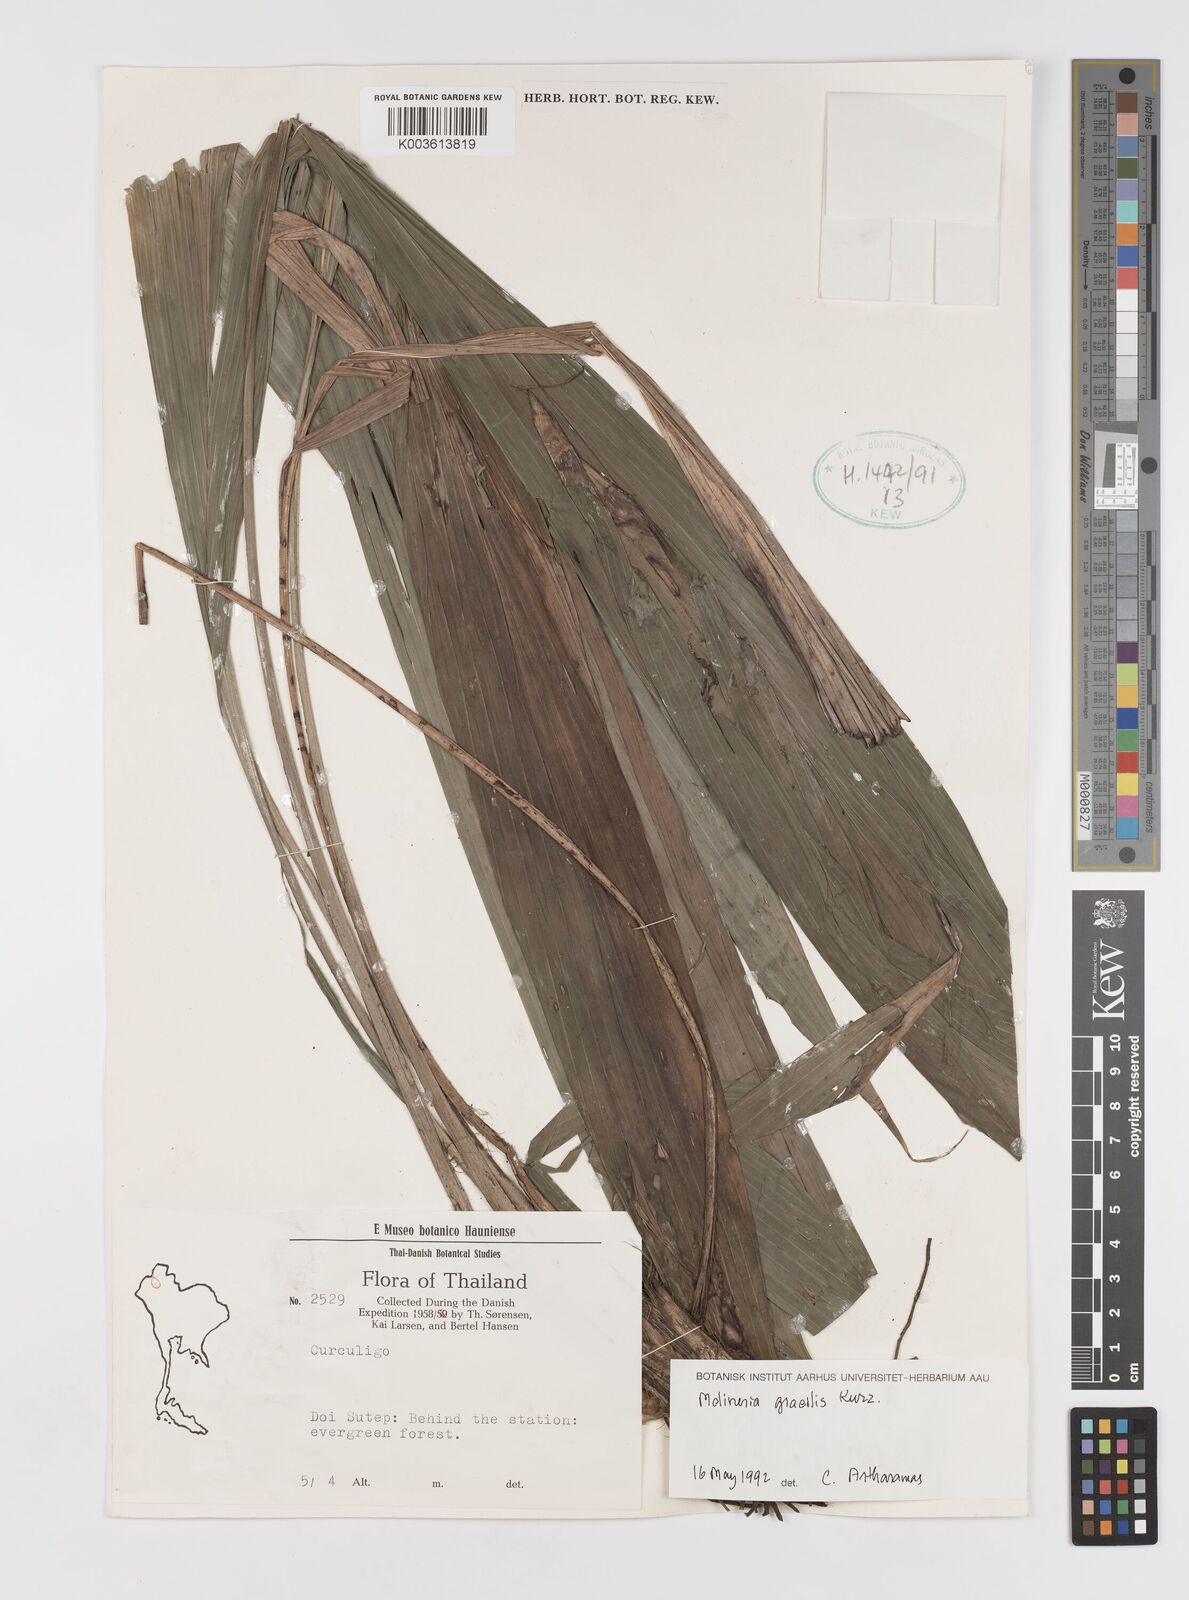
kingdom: Plantae
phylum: Tracheophyta
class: Liliopsida
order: Asparagales
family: Hypoxidaceae
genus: Curculigo
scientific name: Curculigo gracilis
